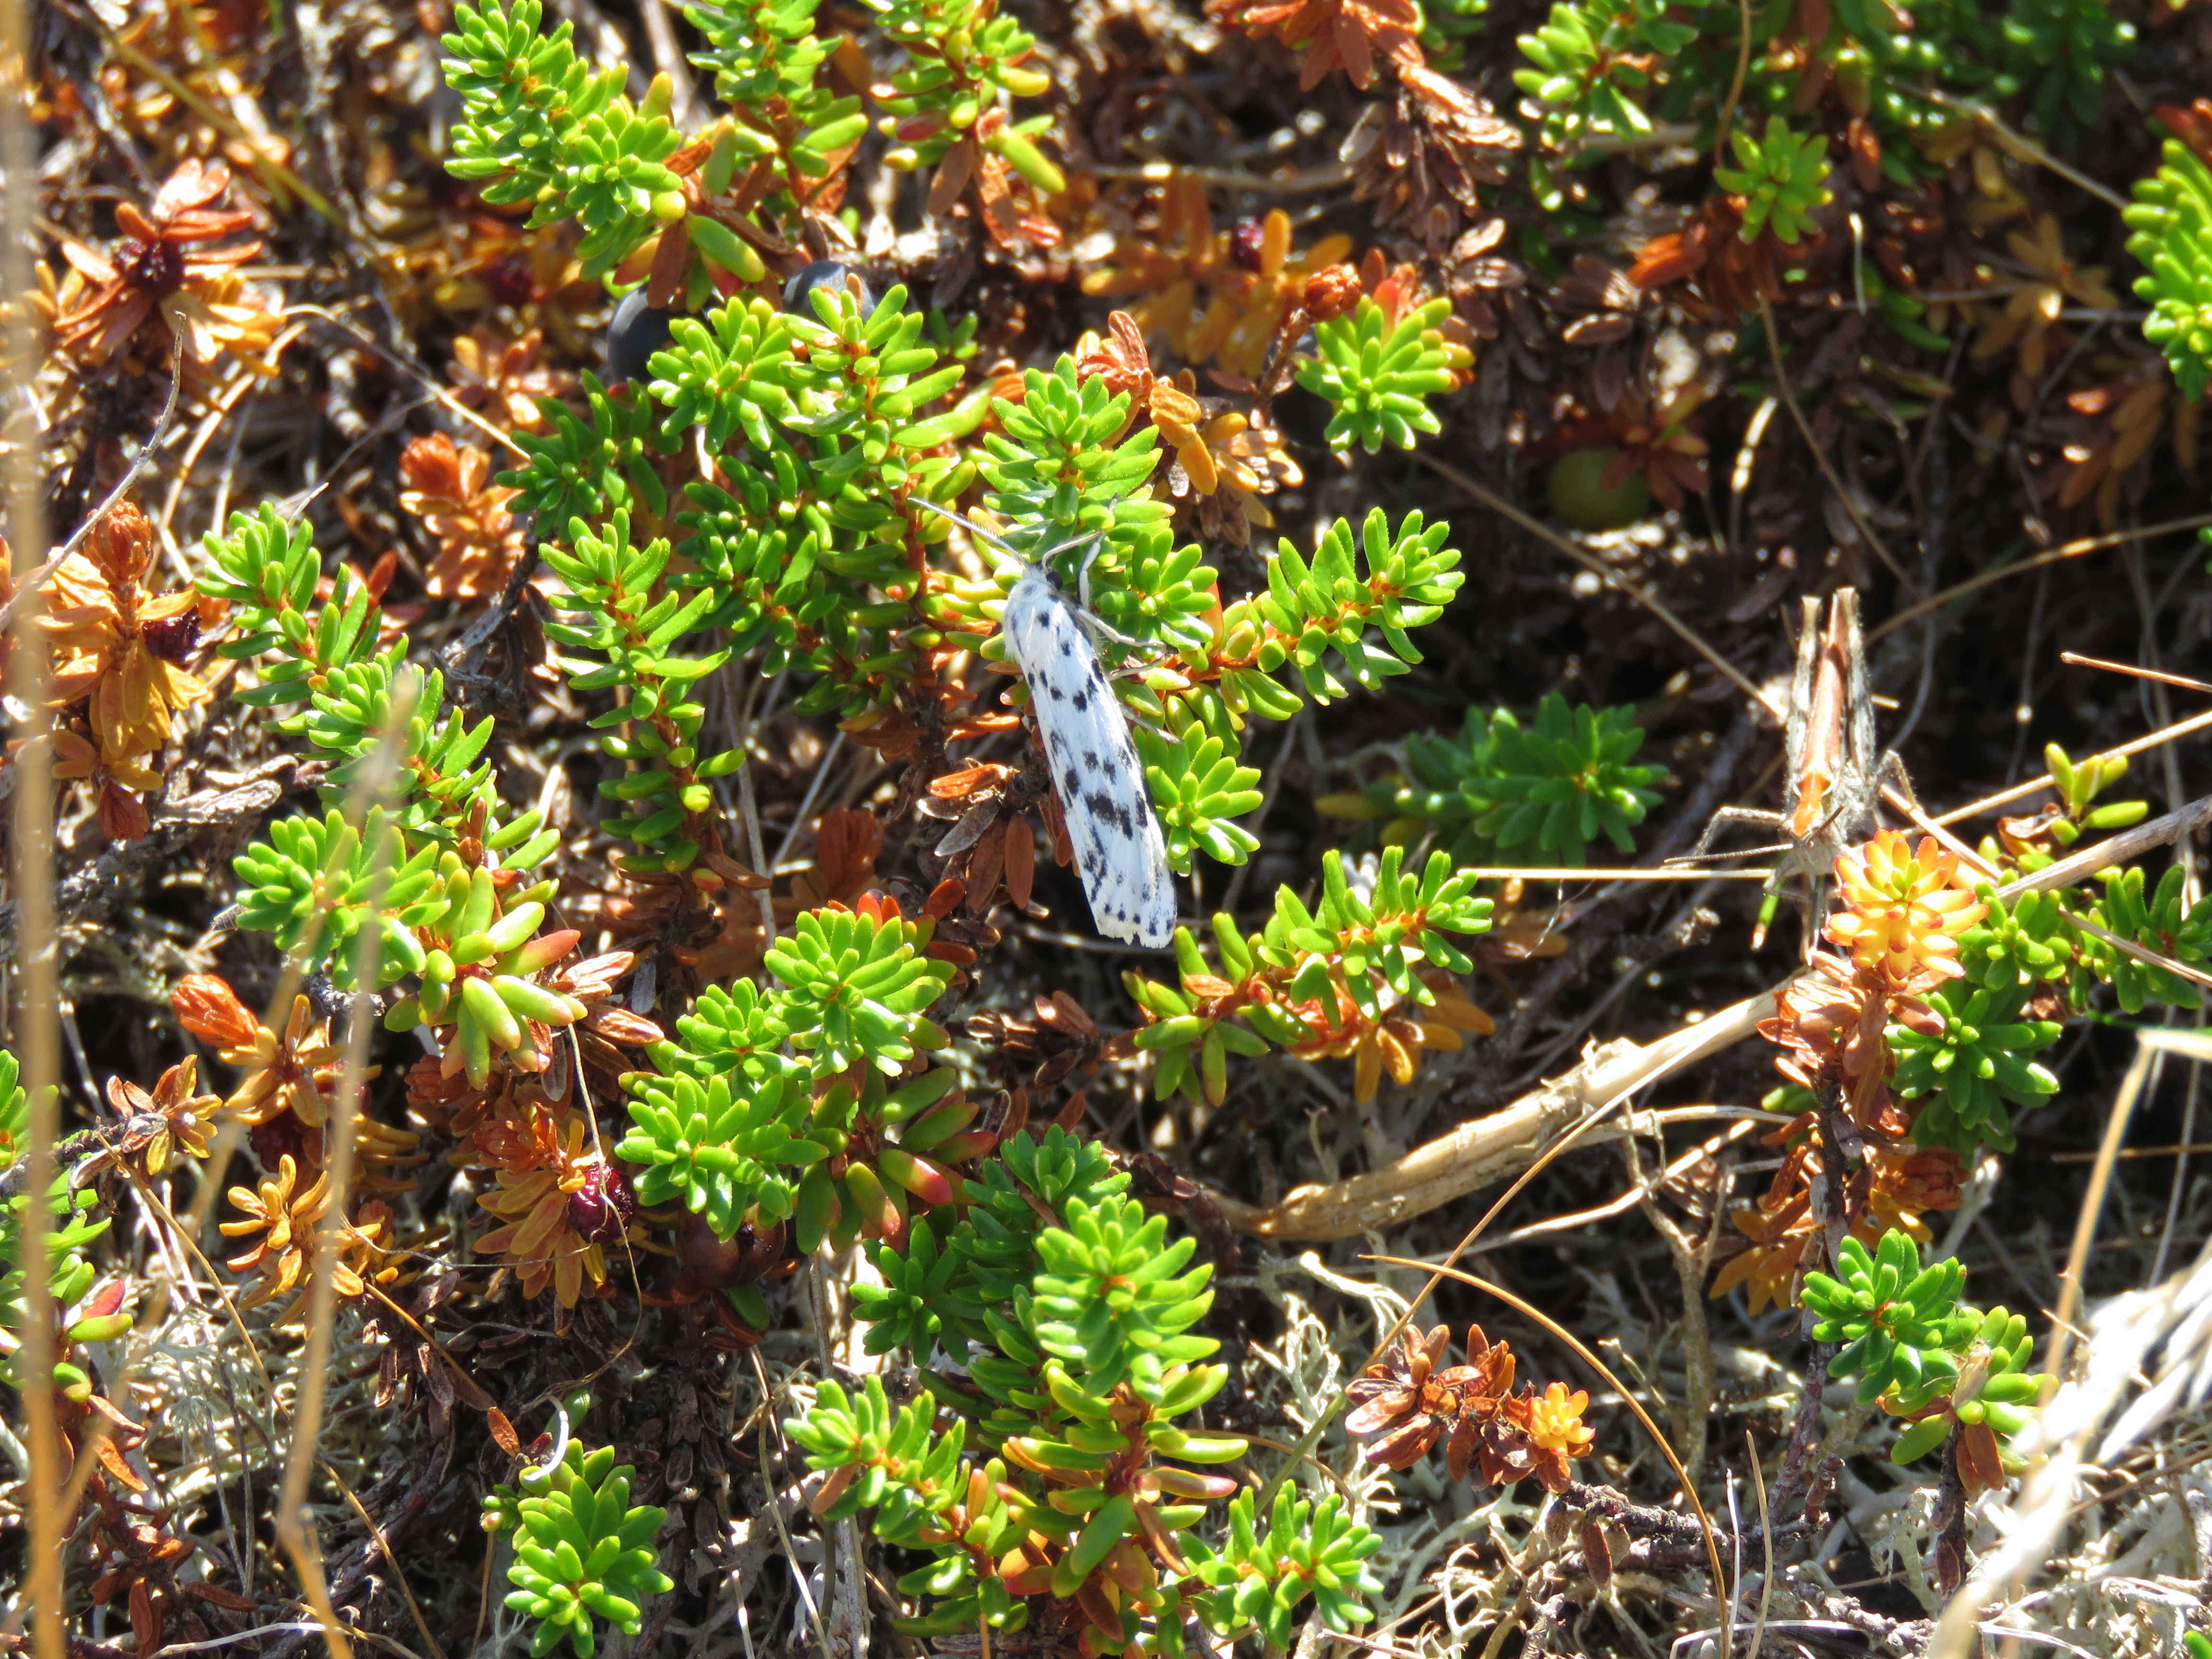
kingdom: Animalia
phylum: Arthropoda
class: Insecta
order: Lepidoptera
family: Erebidae
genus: Coscinia
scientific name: Coscinia cribraria
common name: Speckled footman
